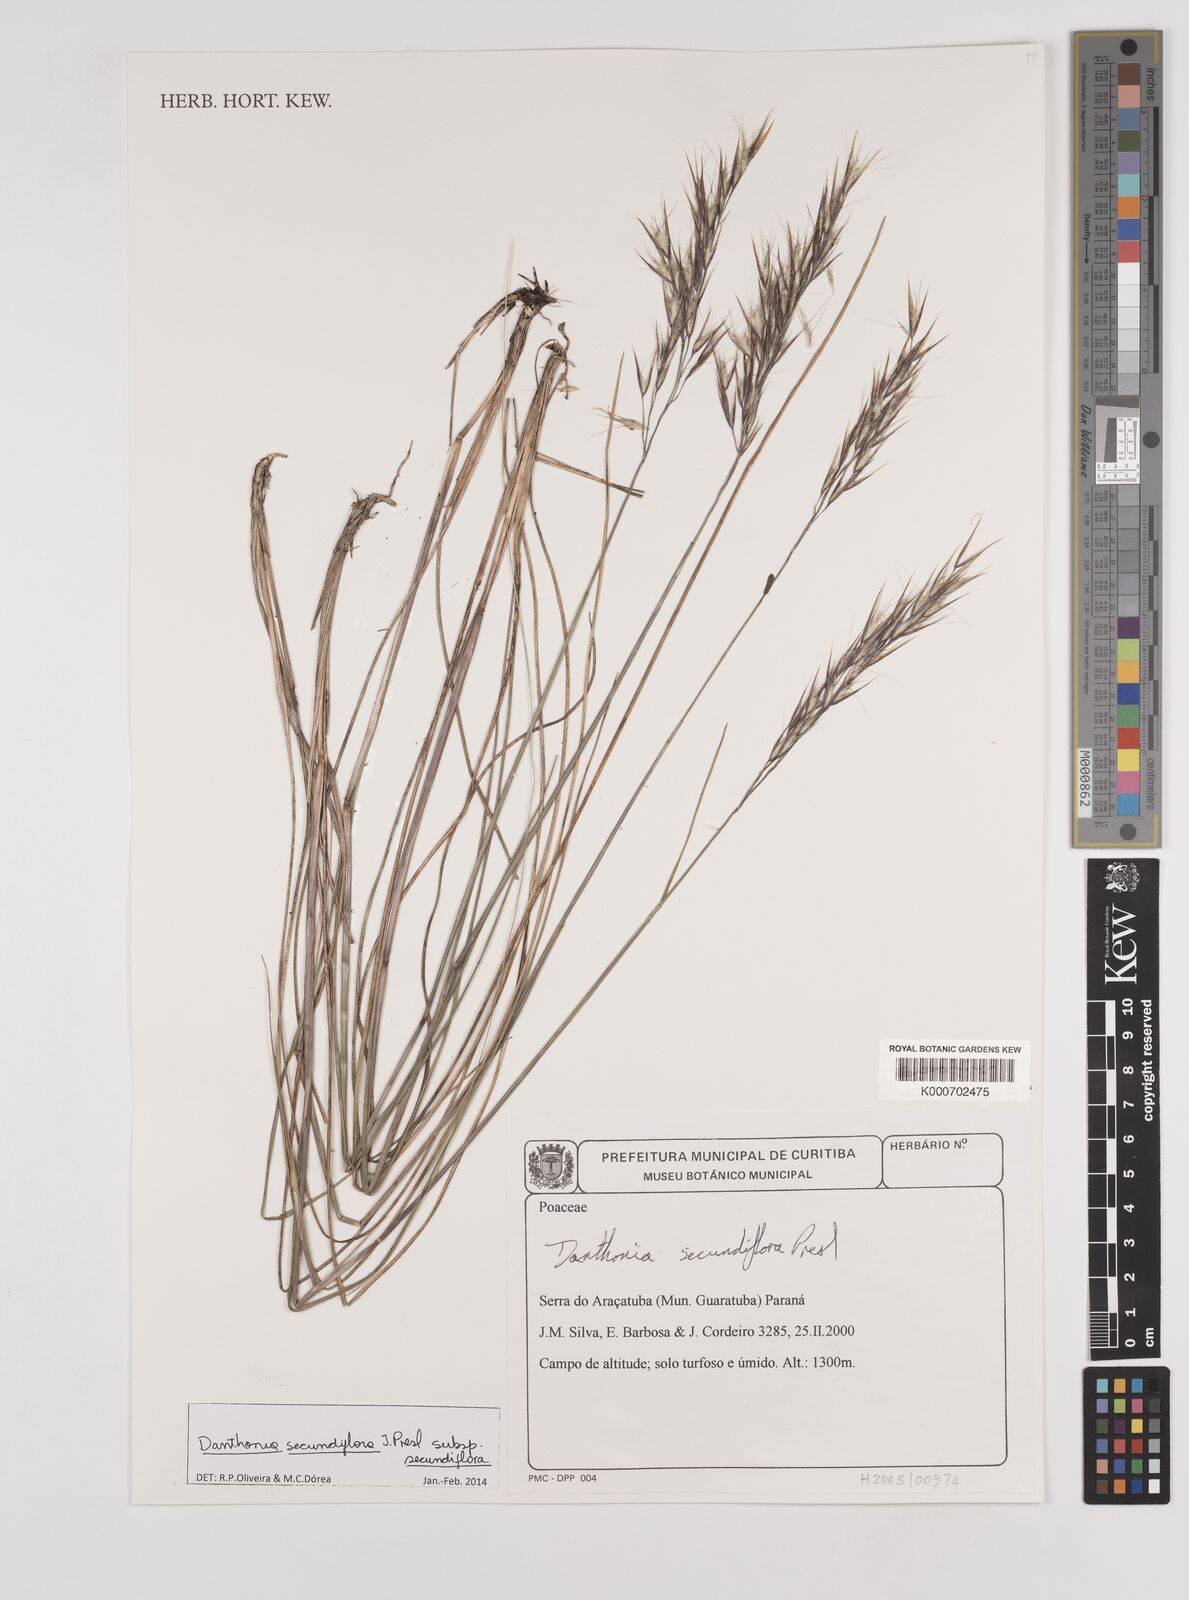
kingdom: Plantae
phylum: Tracheophyta
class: Liliopsida
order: Poales
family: Poaceae
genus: Danthonia
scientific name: Danthonia secundiflora
